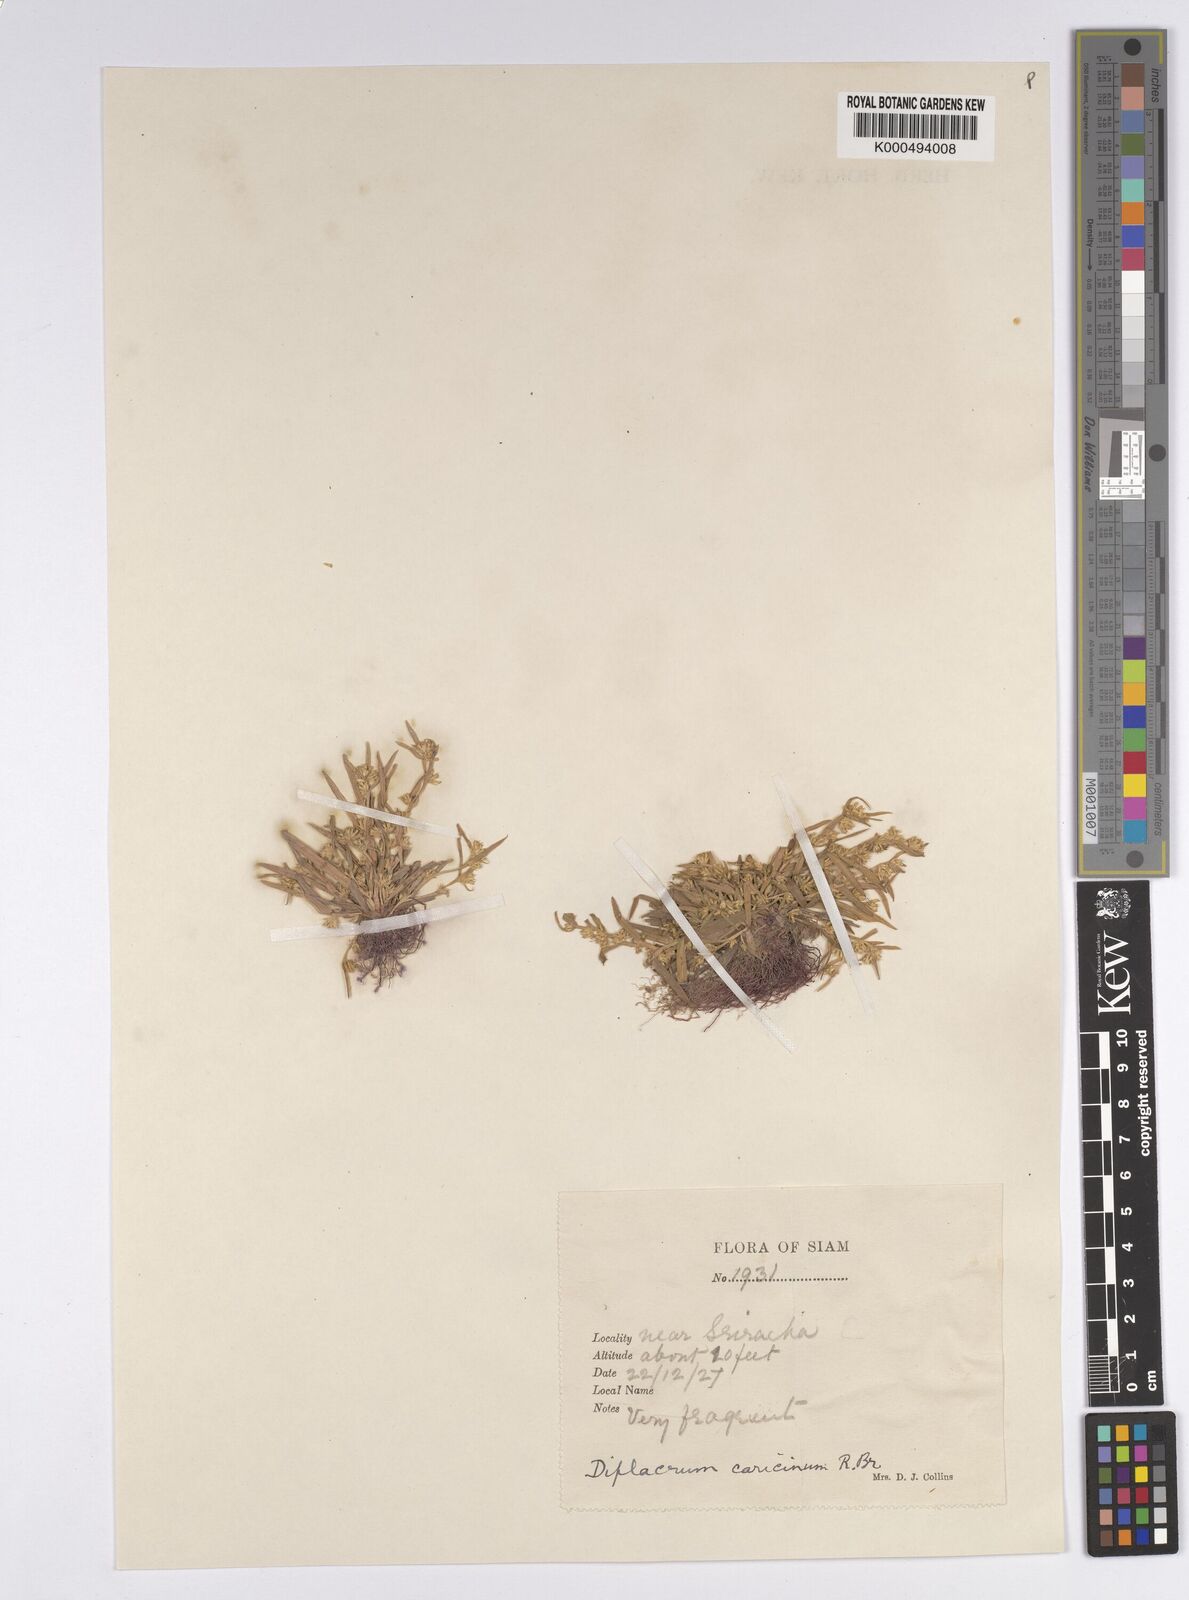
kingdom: Plantae
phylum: Tracheophyta
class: Liliopsida
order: Poales
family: Cyperaceae
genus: Diplacrum
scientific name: Diplacrum caricinum
